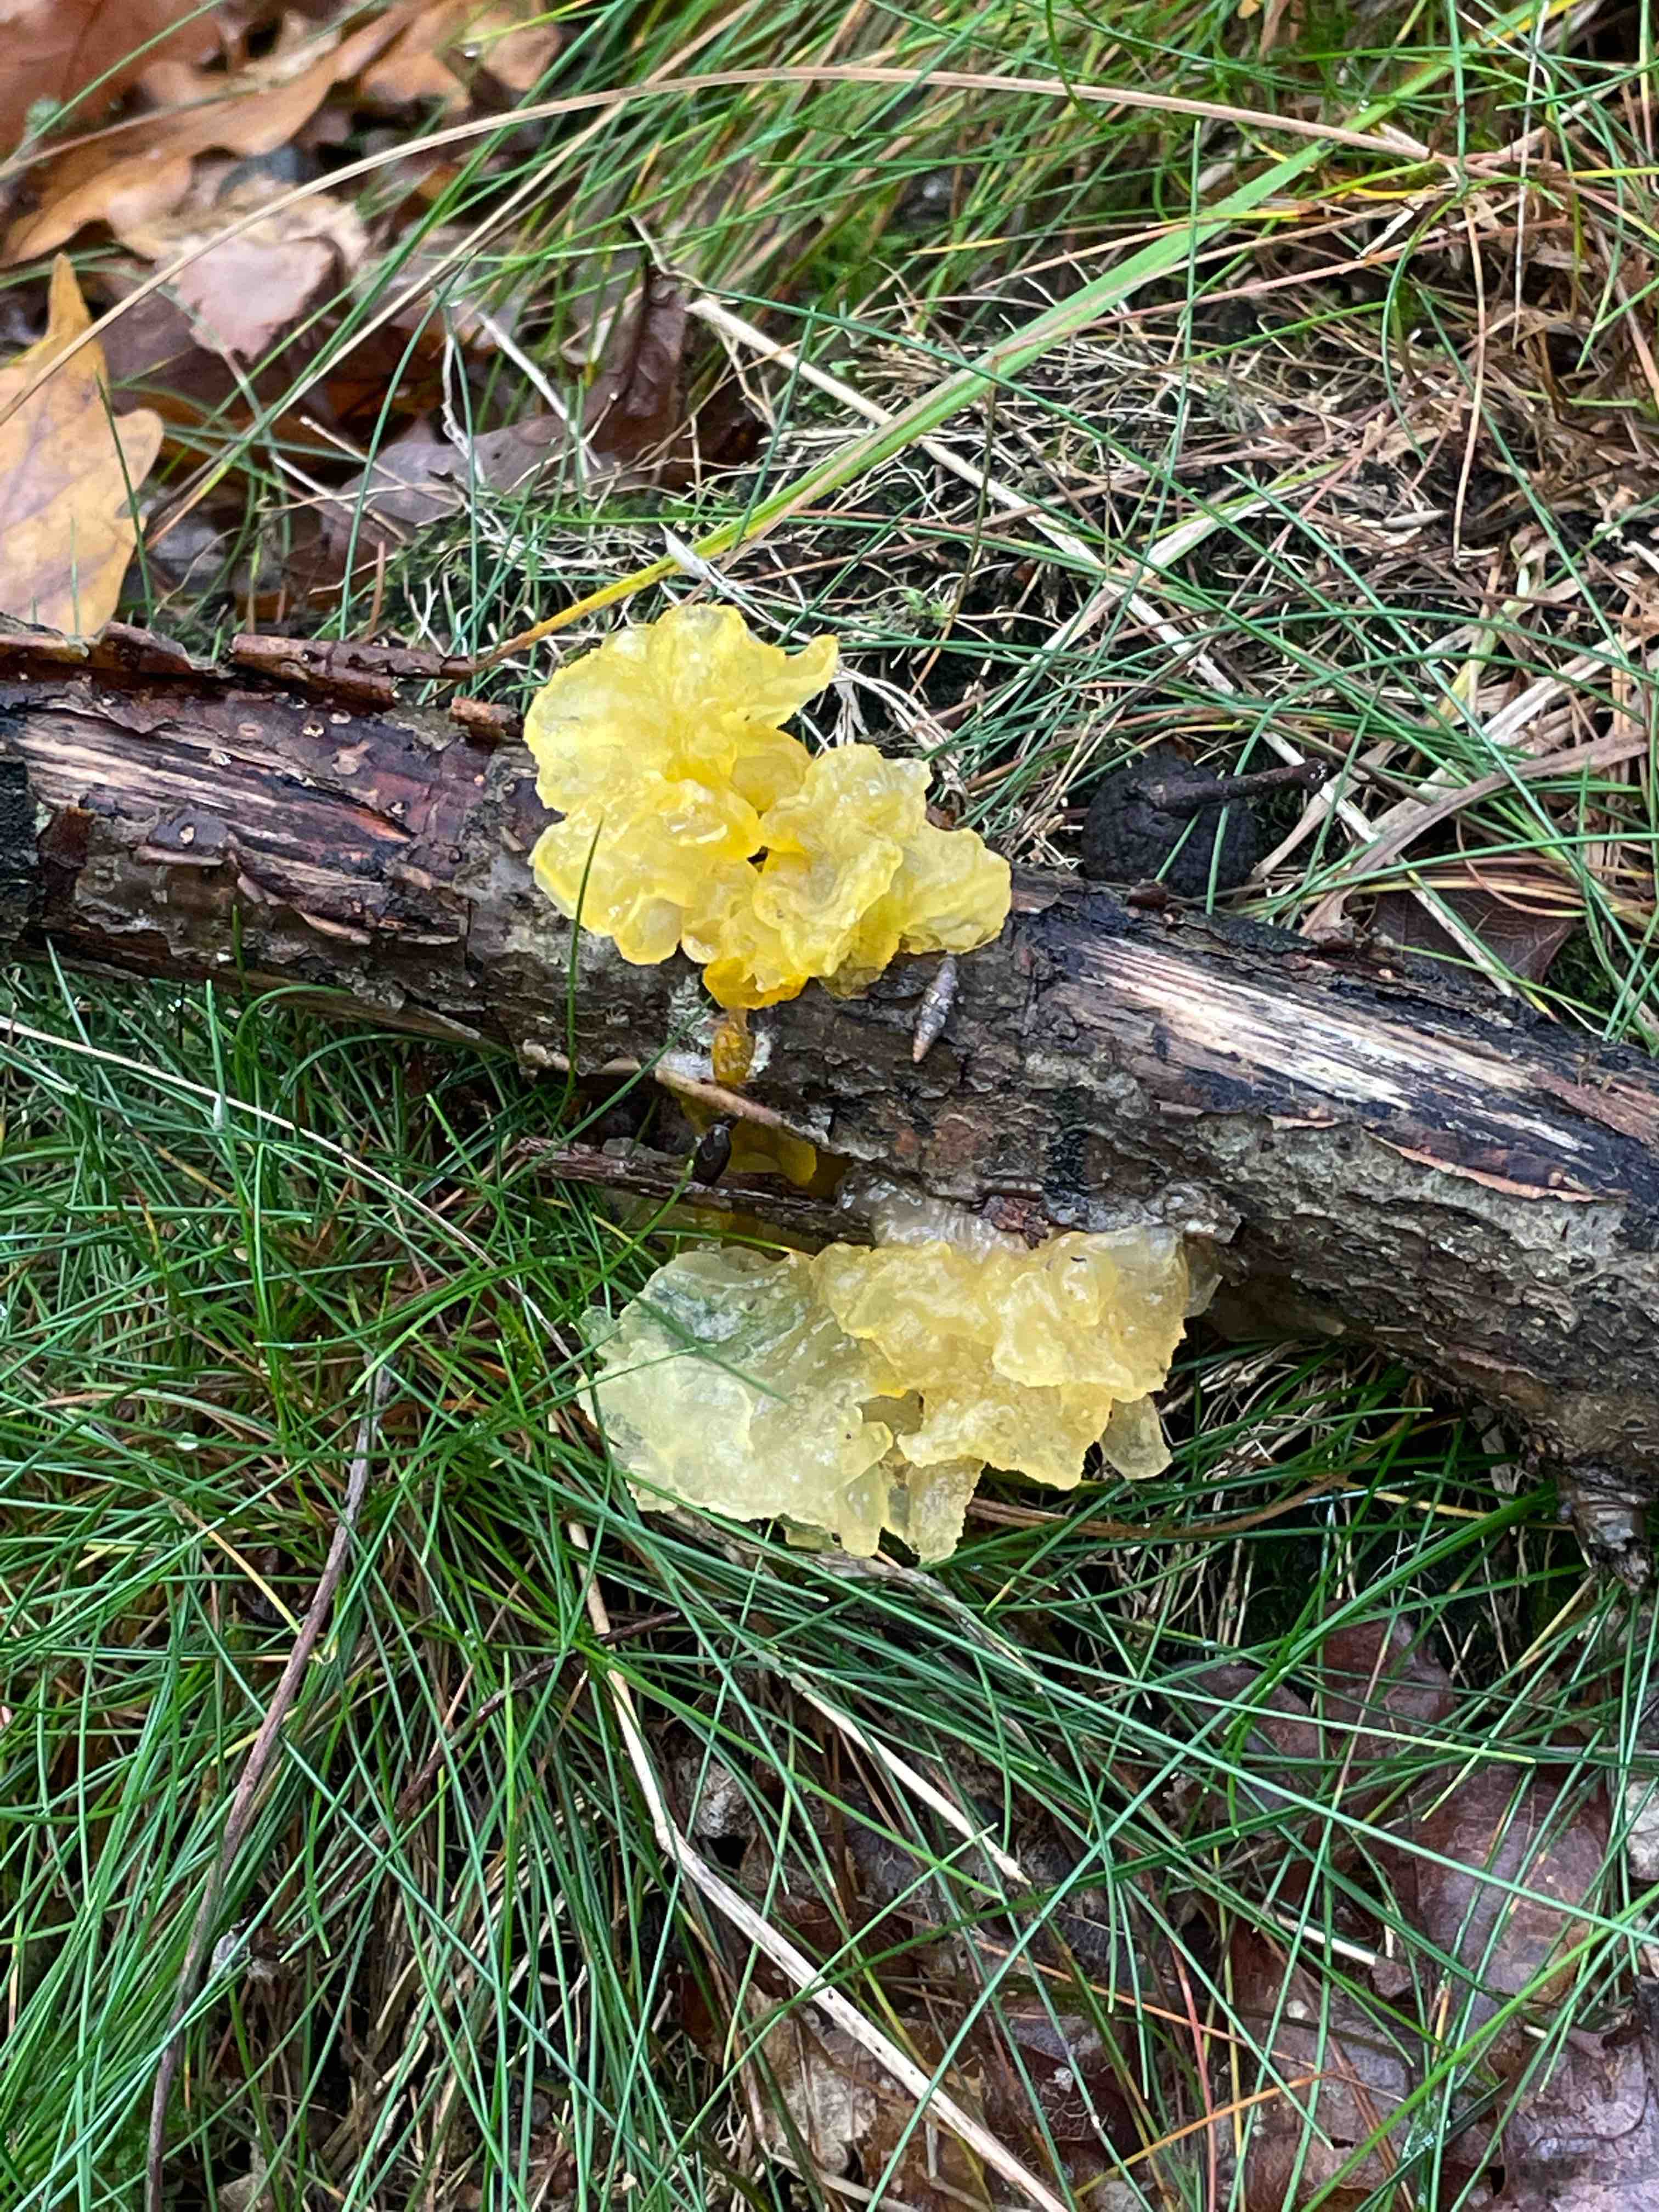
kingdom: Fungi
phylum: Basidiomycota
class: Tremellomycetes
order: Tremellales
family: Tremellaceae
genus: Tremella
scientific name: Tremella mesenterica
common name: gul bævresvamp
